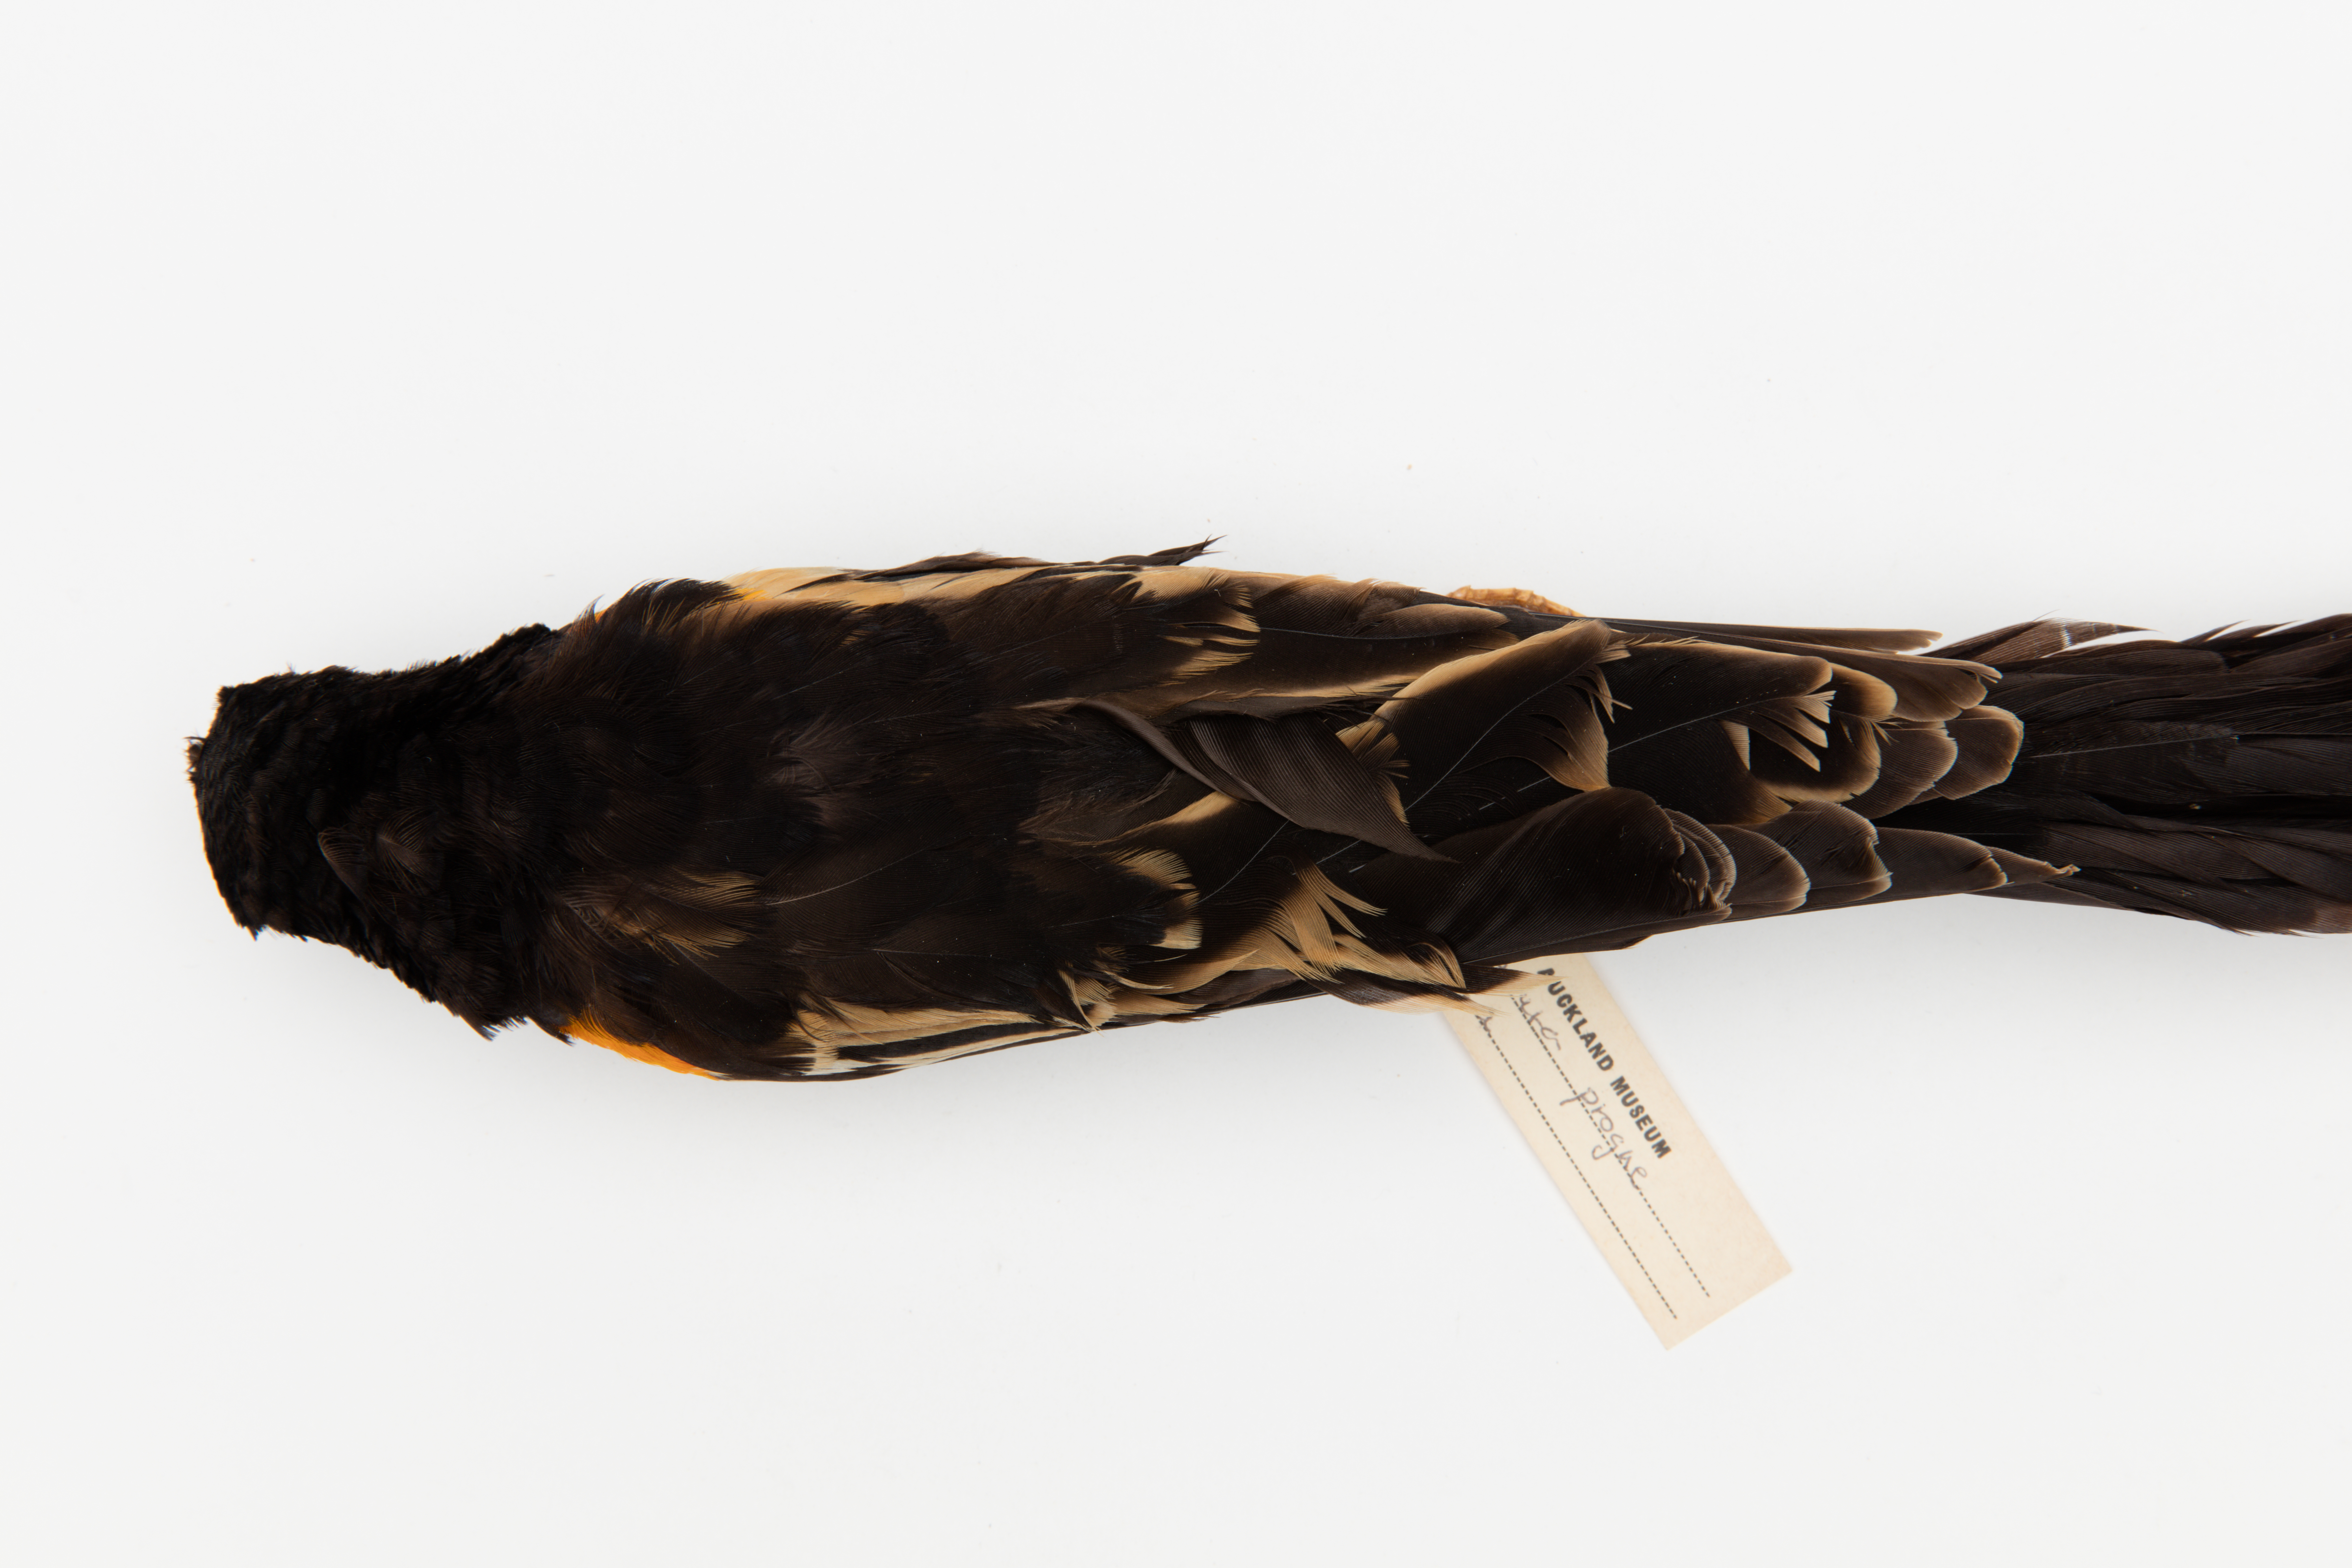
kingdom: Animalia
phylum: Chordata
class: Aves
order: Passeriformes
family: Ploceidae
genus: Euplectes
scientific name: Euplectes progne
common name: Long-tailed widowbird
